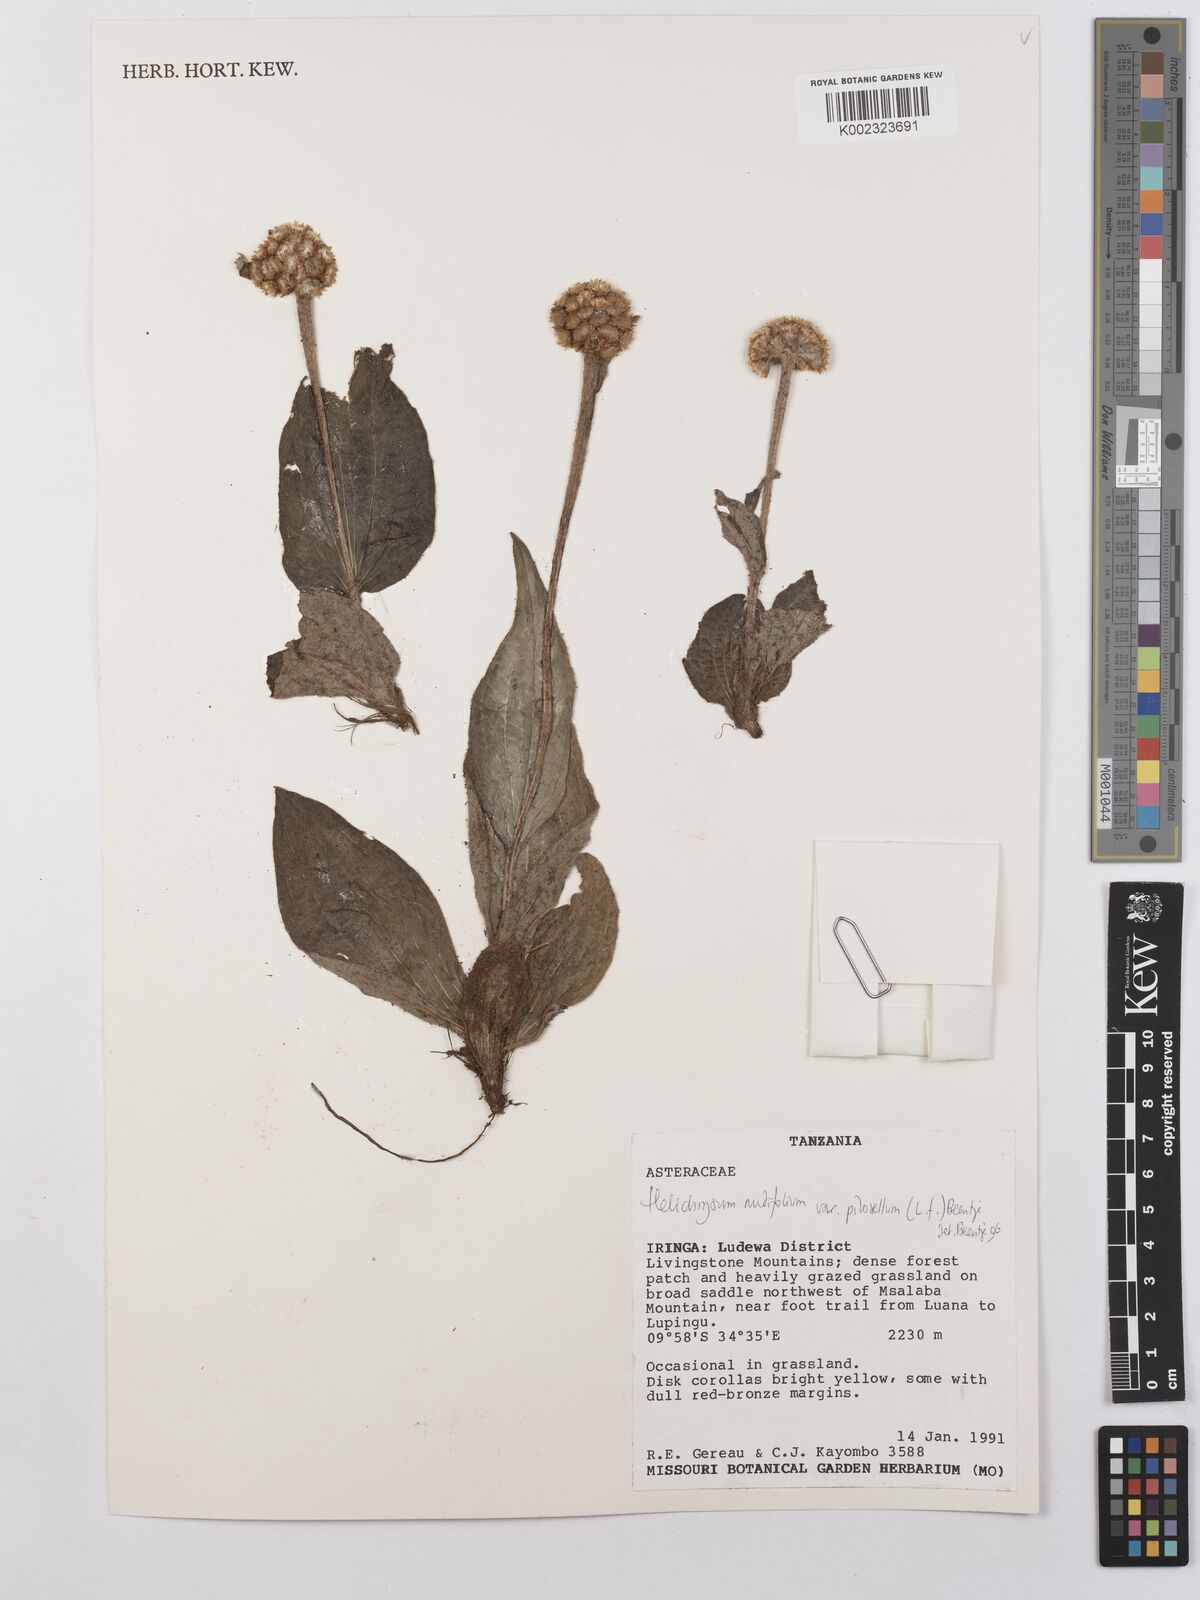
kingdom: Plantae
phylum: Tracheophyta
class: Magnoliopsida
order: Asterales
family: Asteraceae
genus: Helichrysum
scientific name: Helichrysum nudifolium
